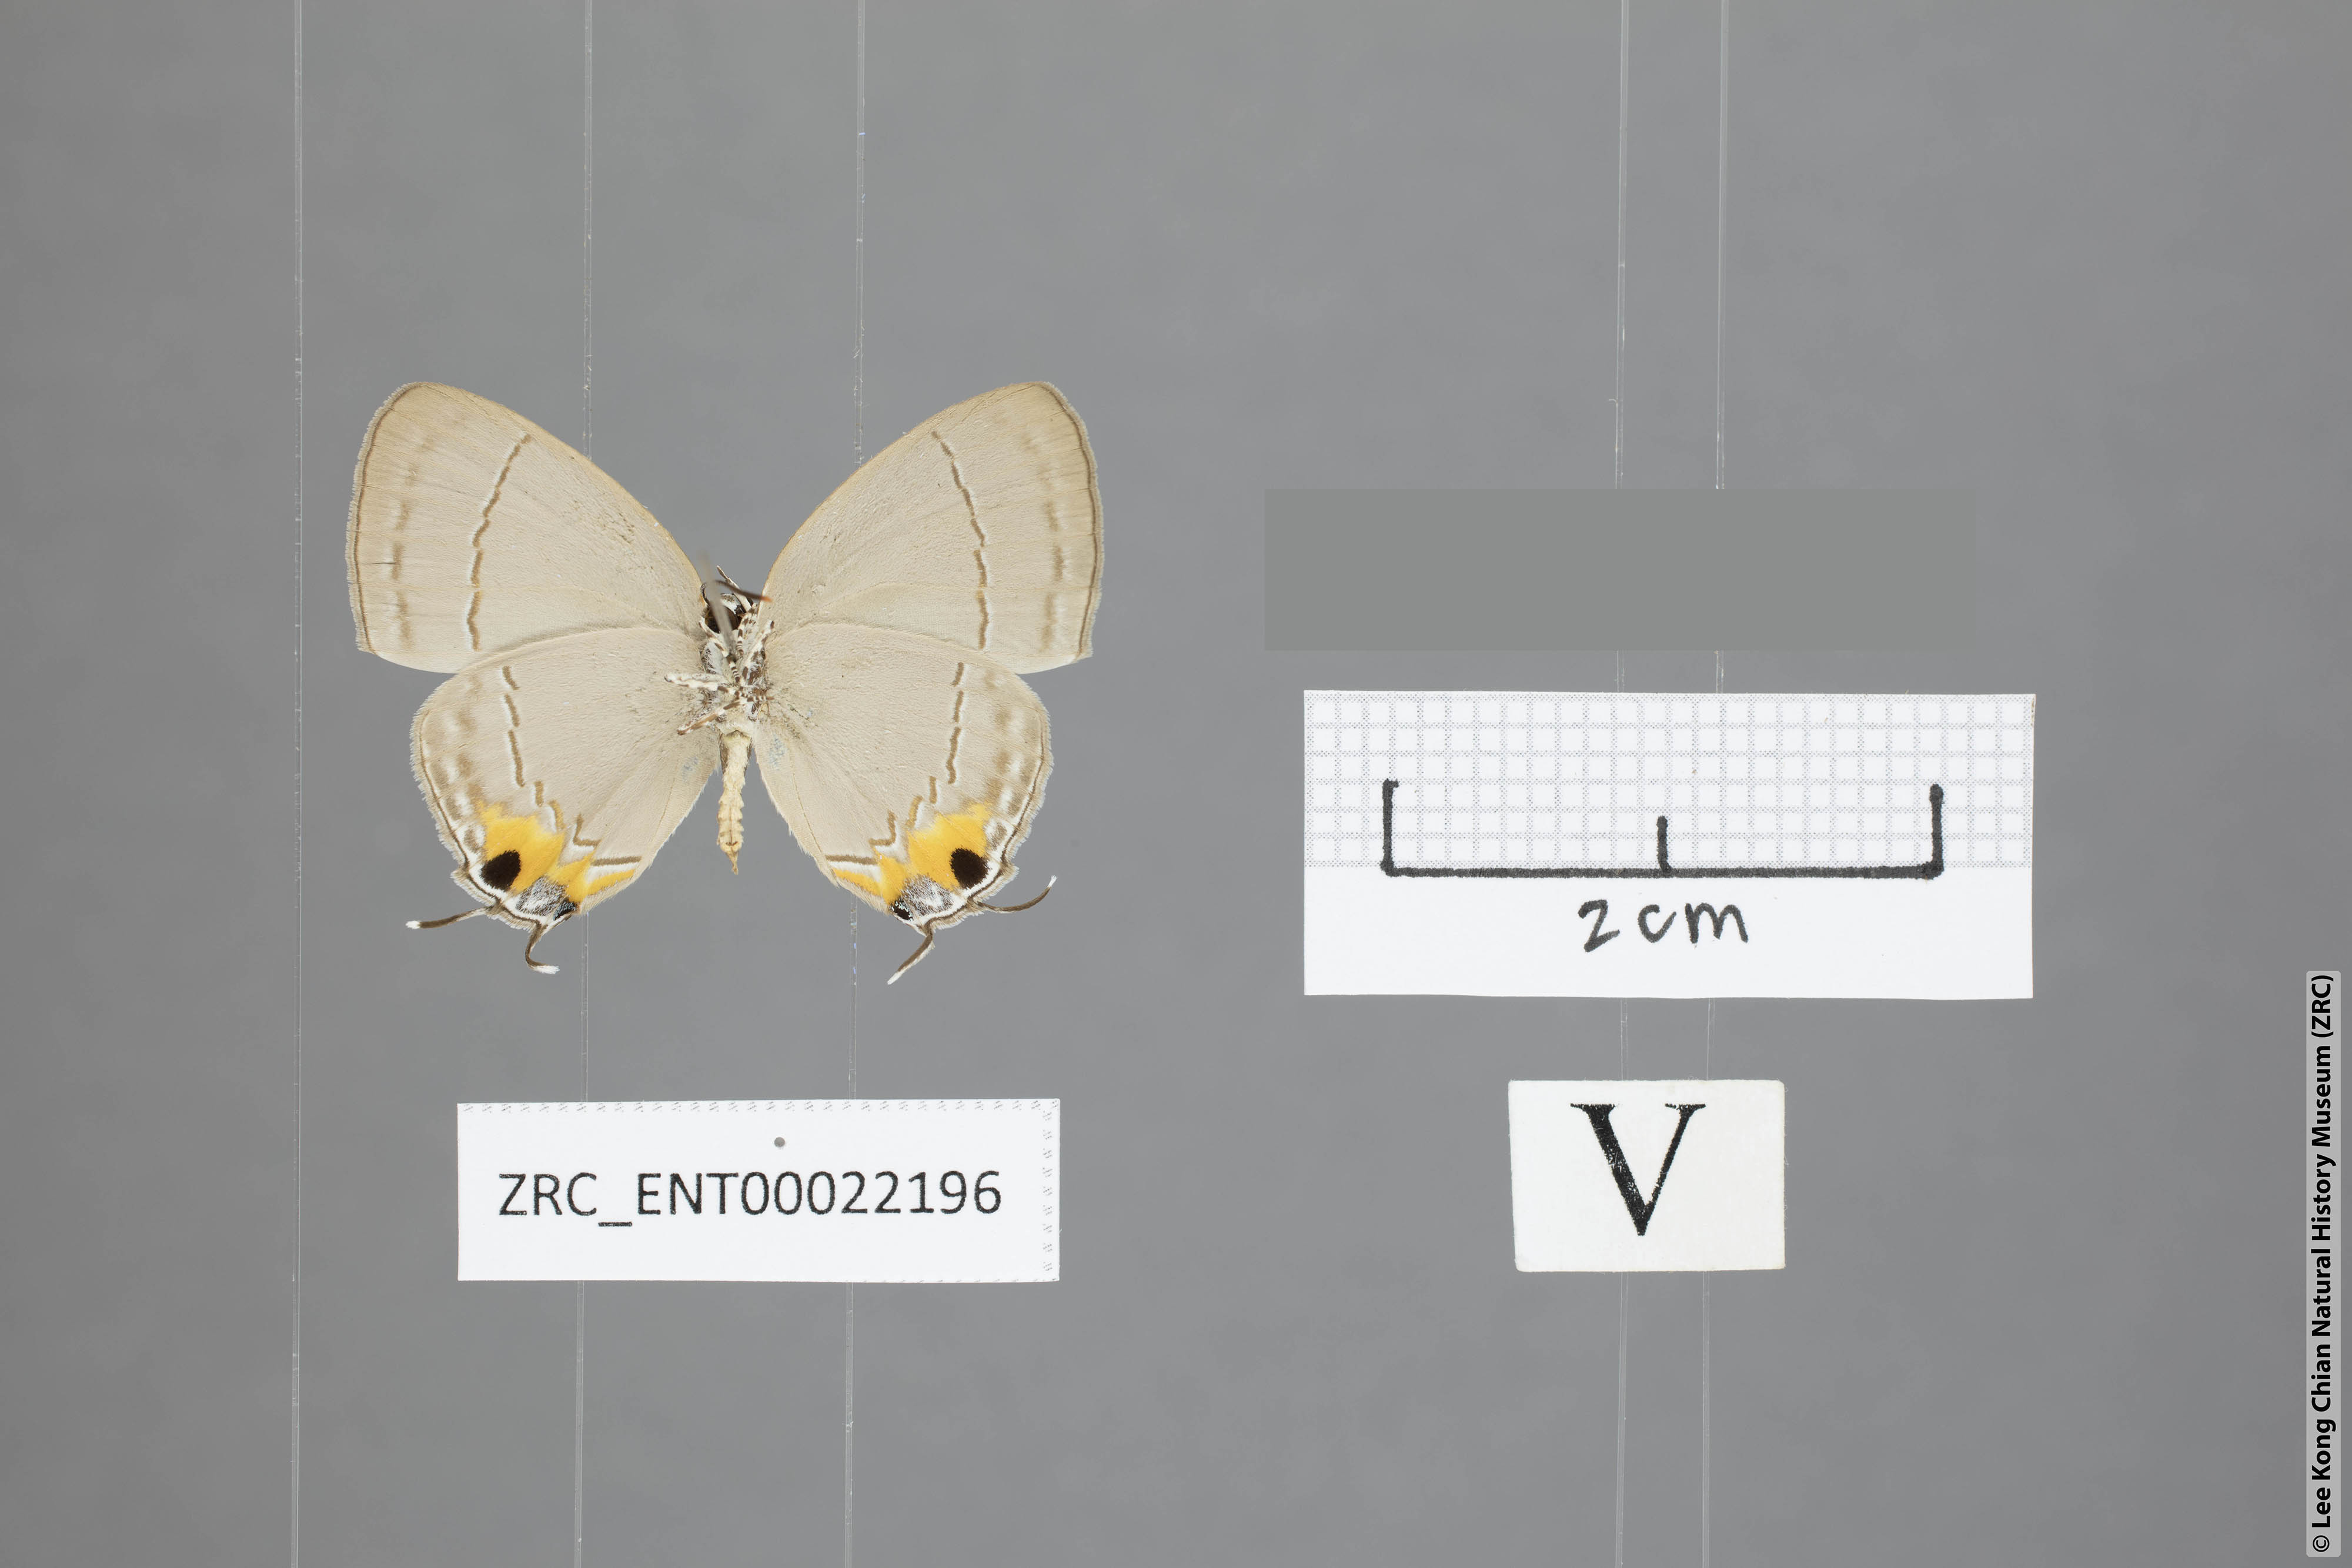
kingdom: Animalia
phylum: Arthropoda
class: Insecta
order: Lepidoptera
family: Lycaenidae
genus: Tajuria
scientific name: Tajuria isaeus
